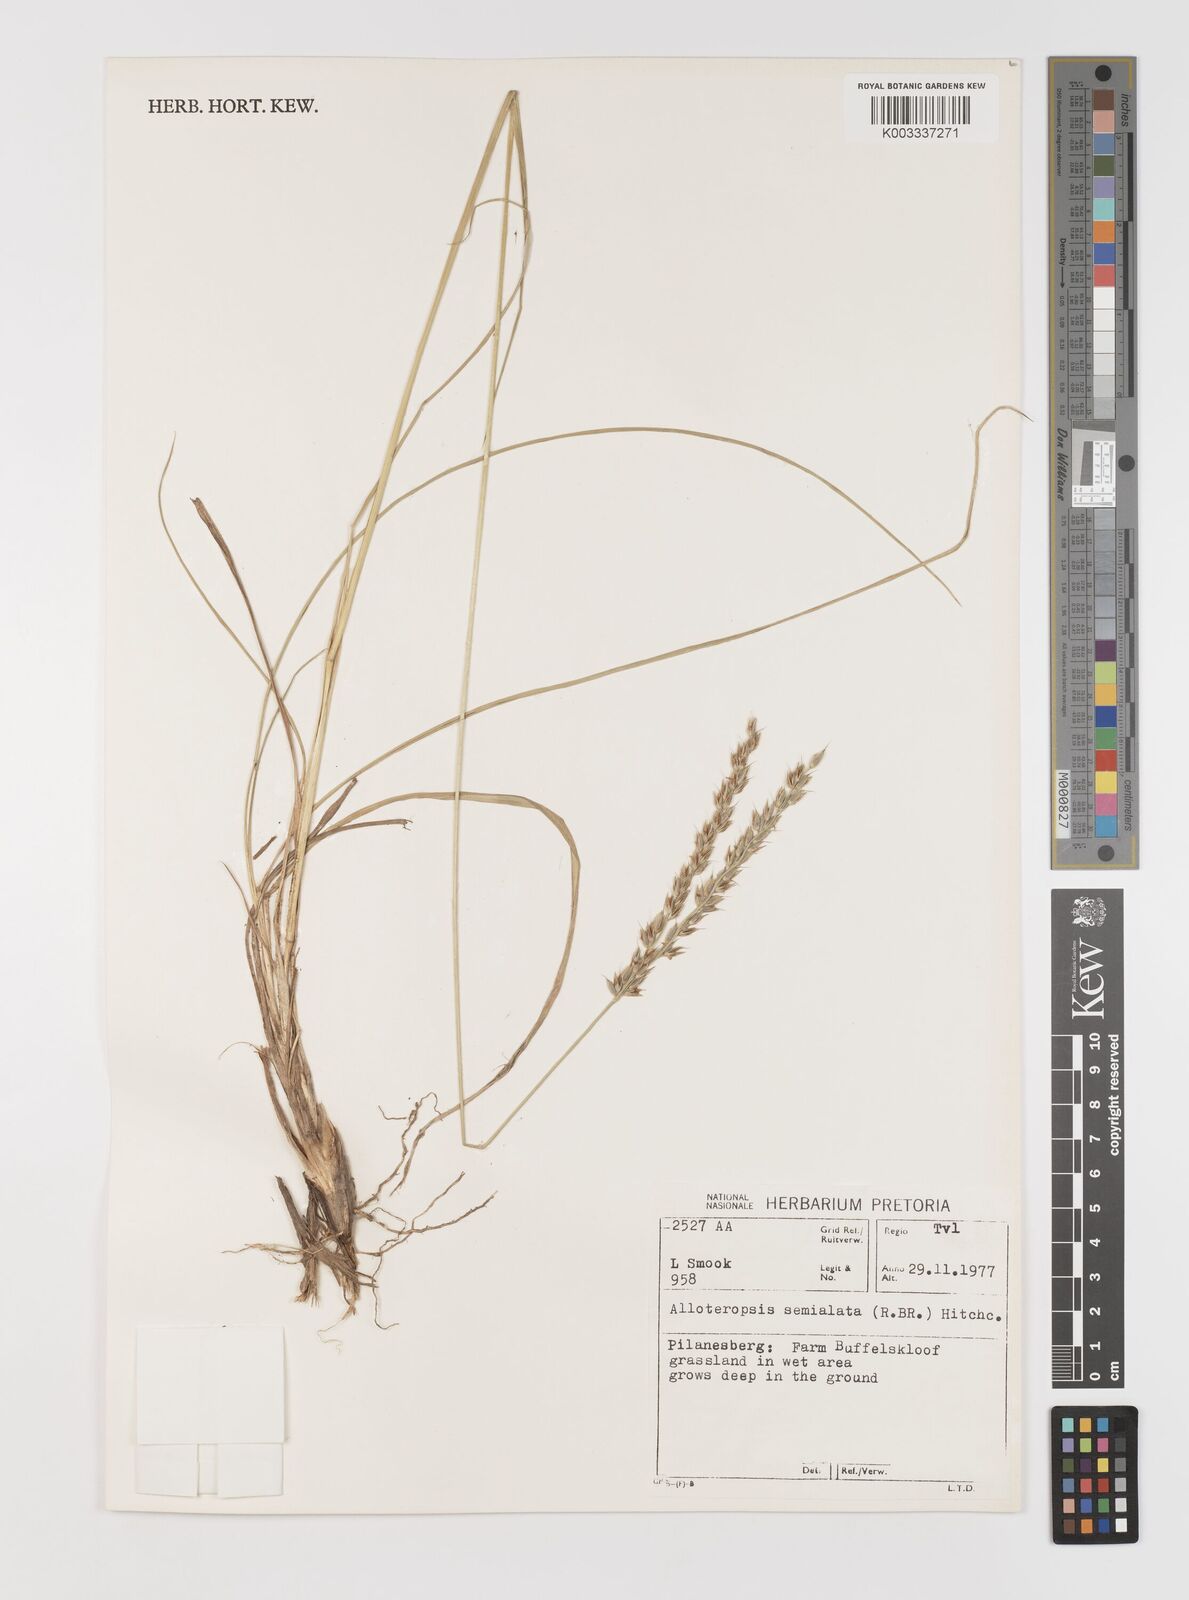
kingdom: Plantae
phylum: Tracheophyta
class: Liliopsida
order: Poales
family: Poaceae
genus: Alloteropsis
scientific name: Alloteropsis semialata
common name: Cockatoo grass
